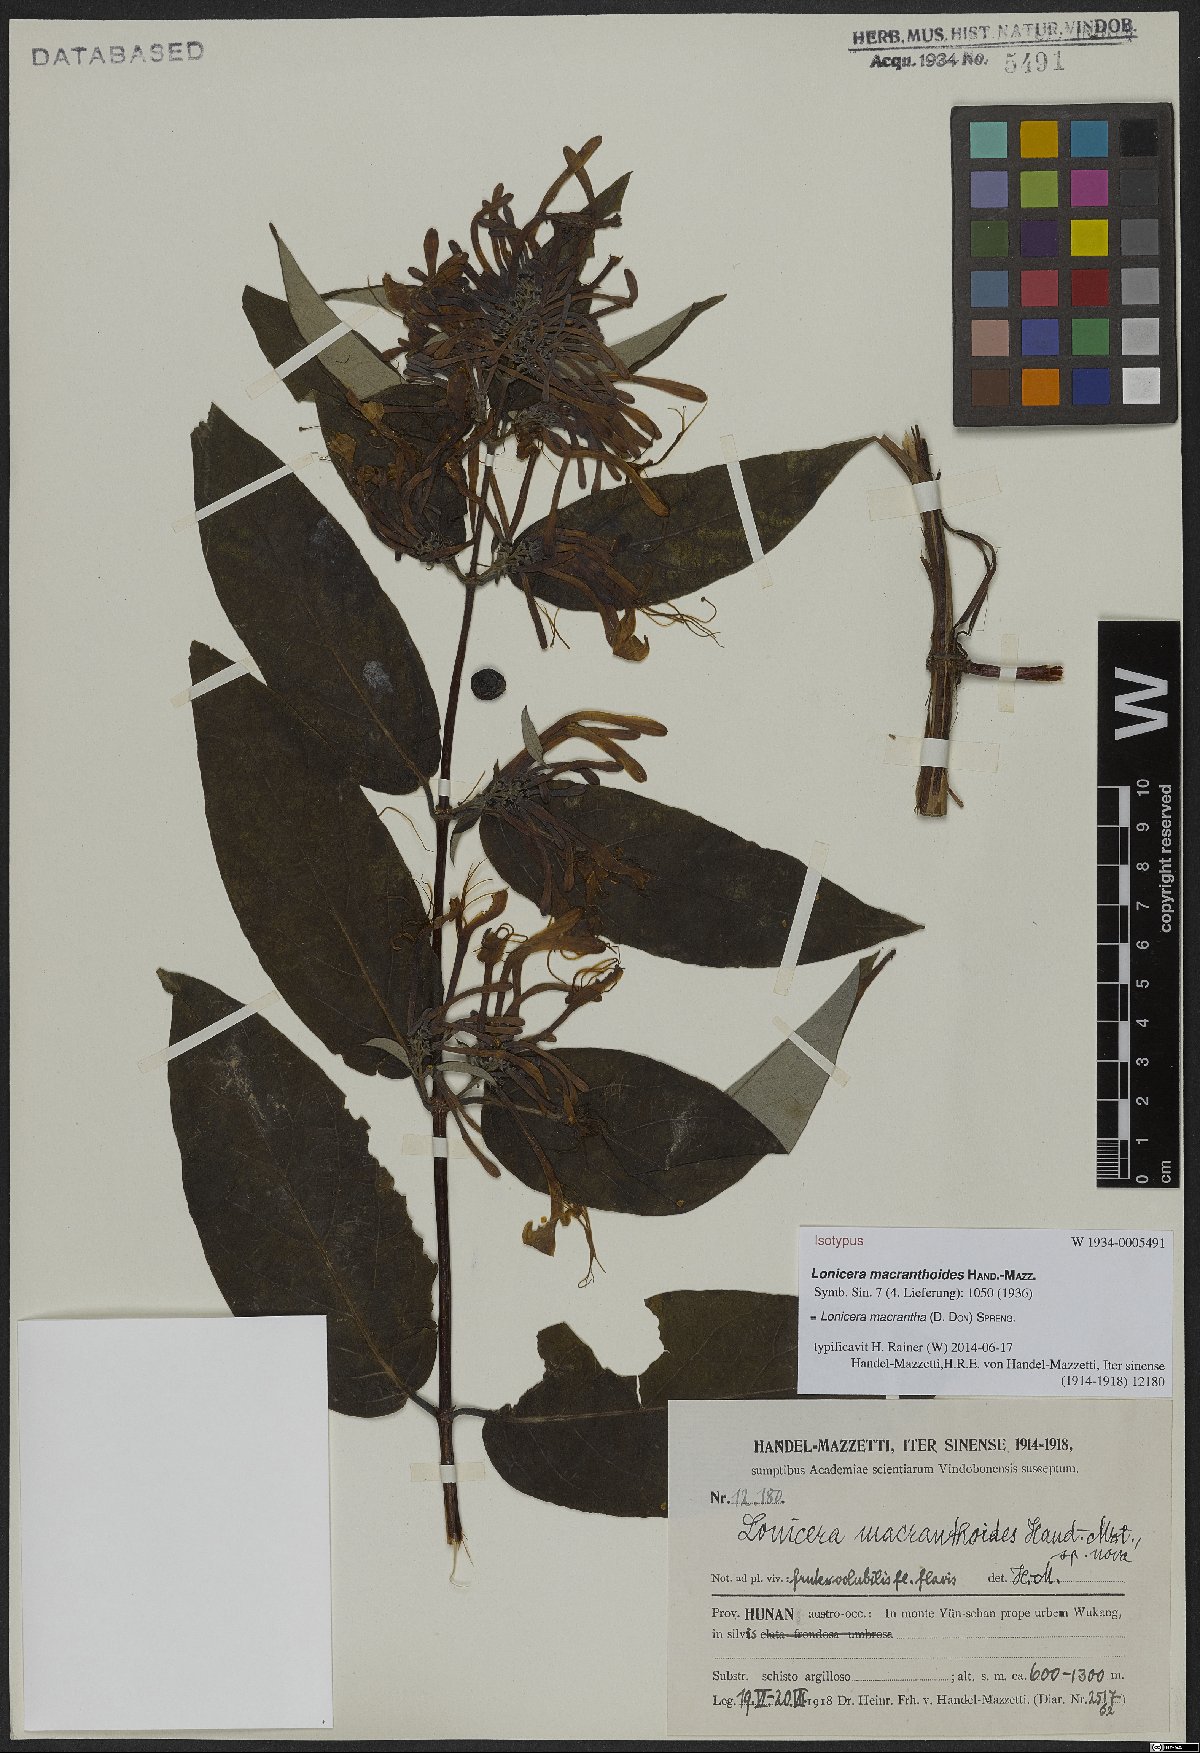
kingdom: Plantae
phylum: Tracheophyta
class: Magnoliopsida
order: Dipsacales
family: Caprifoliaceae
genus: Lonicera
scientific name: Lonicera macrantha
